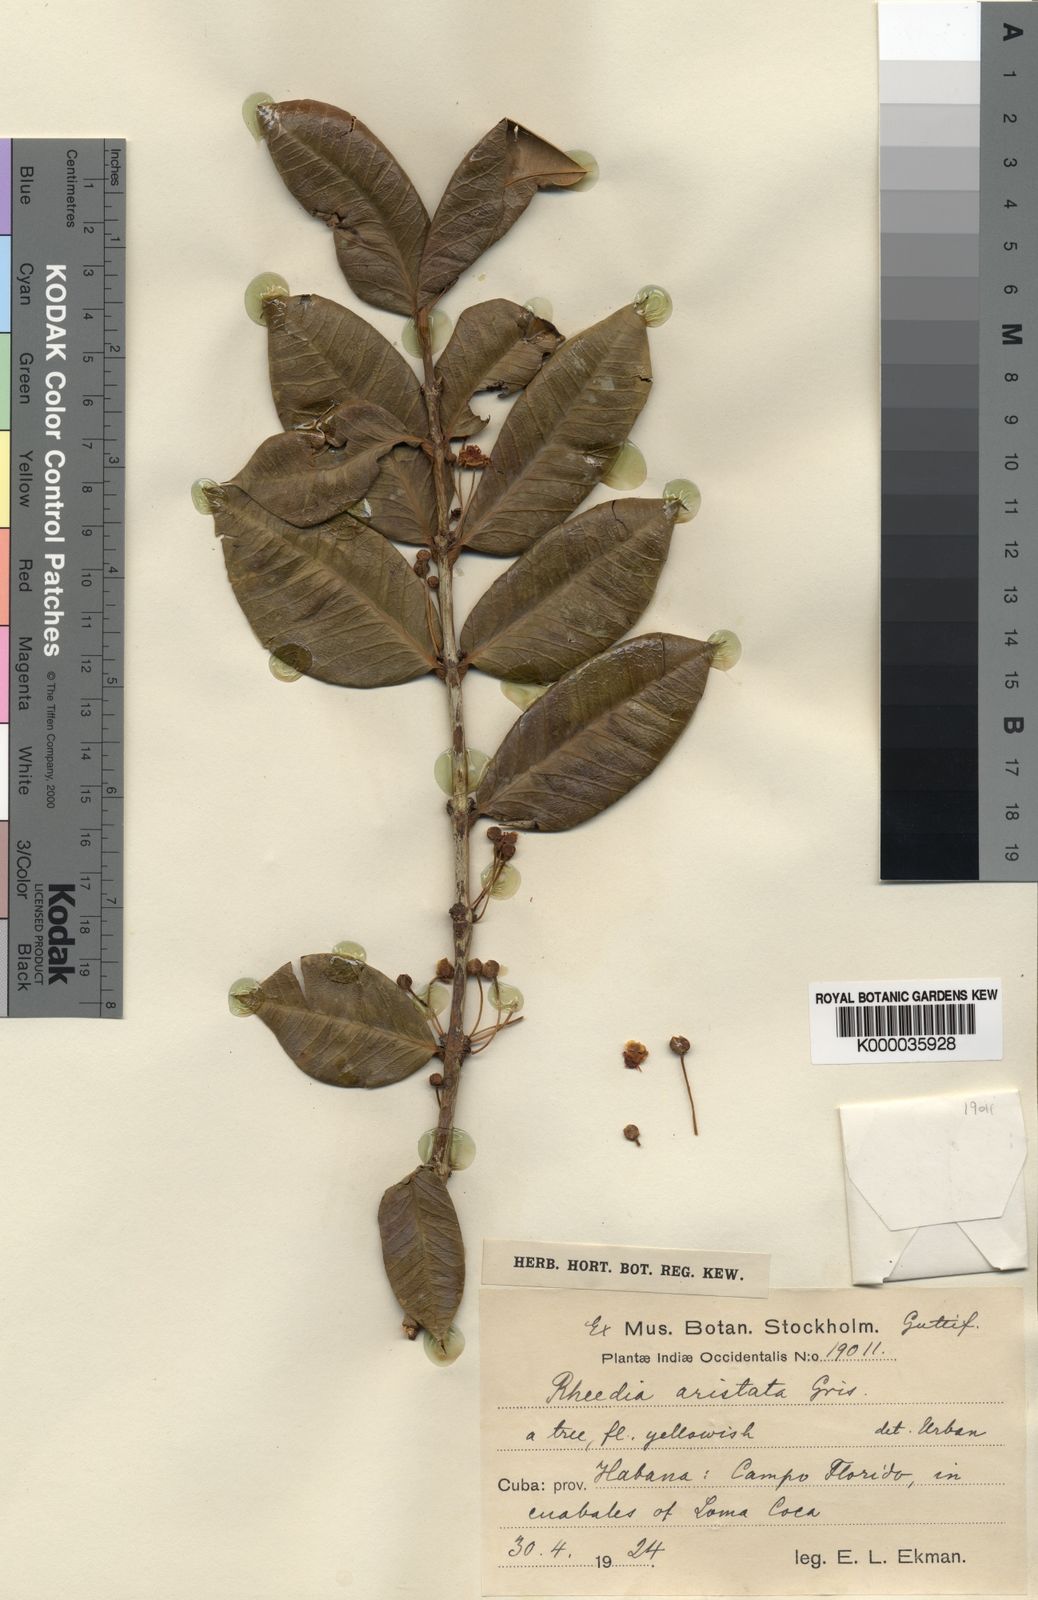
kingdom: Plantae
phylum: Tracheophyta
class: Magnoliopsida
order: Malpighiales
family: Clusiaceae
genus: Garcinia
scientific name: Garcinia aristata
